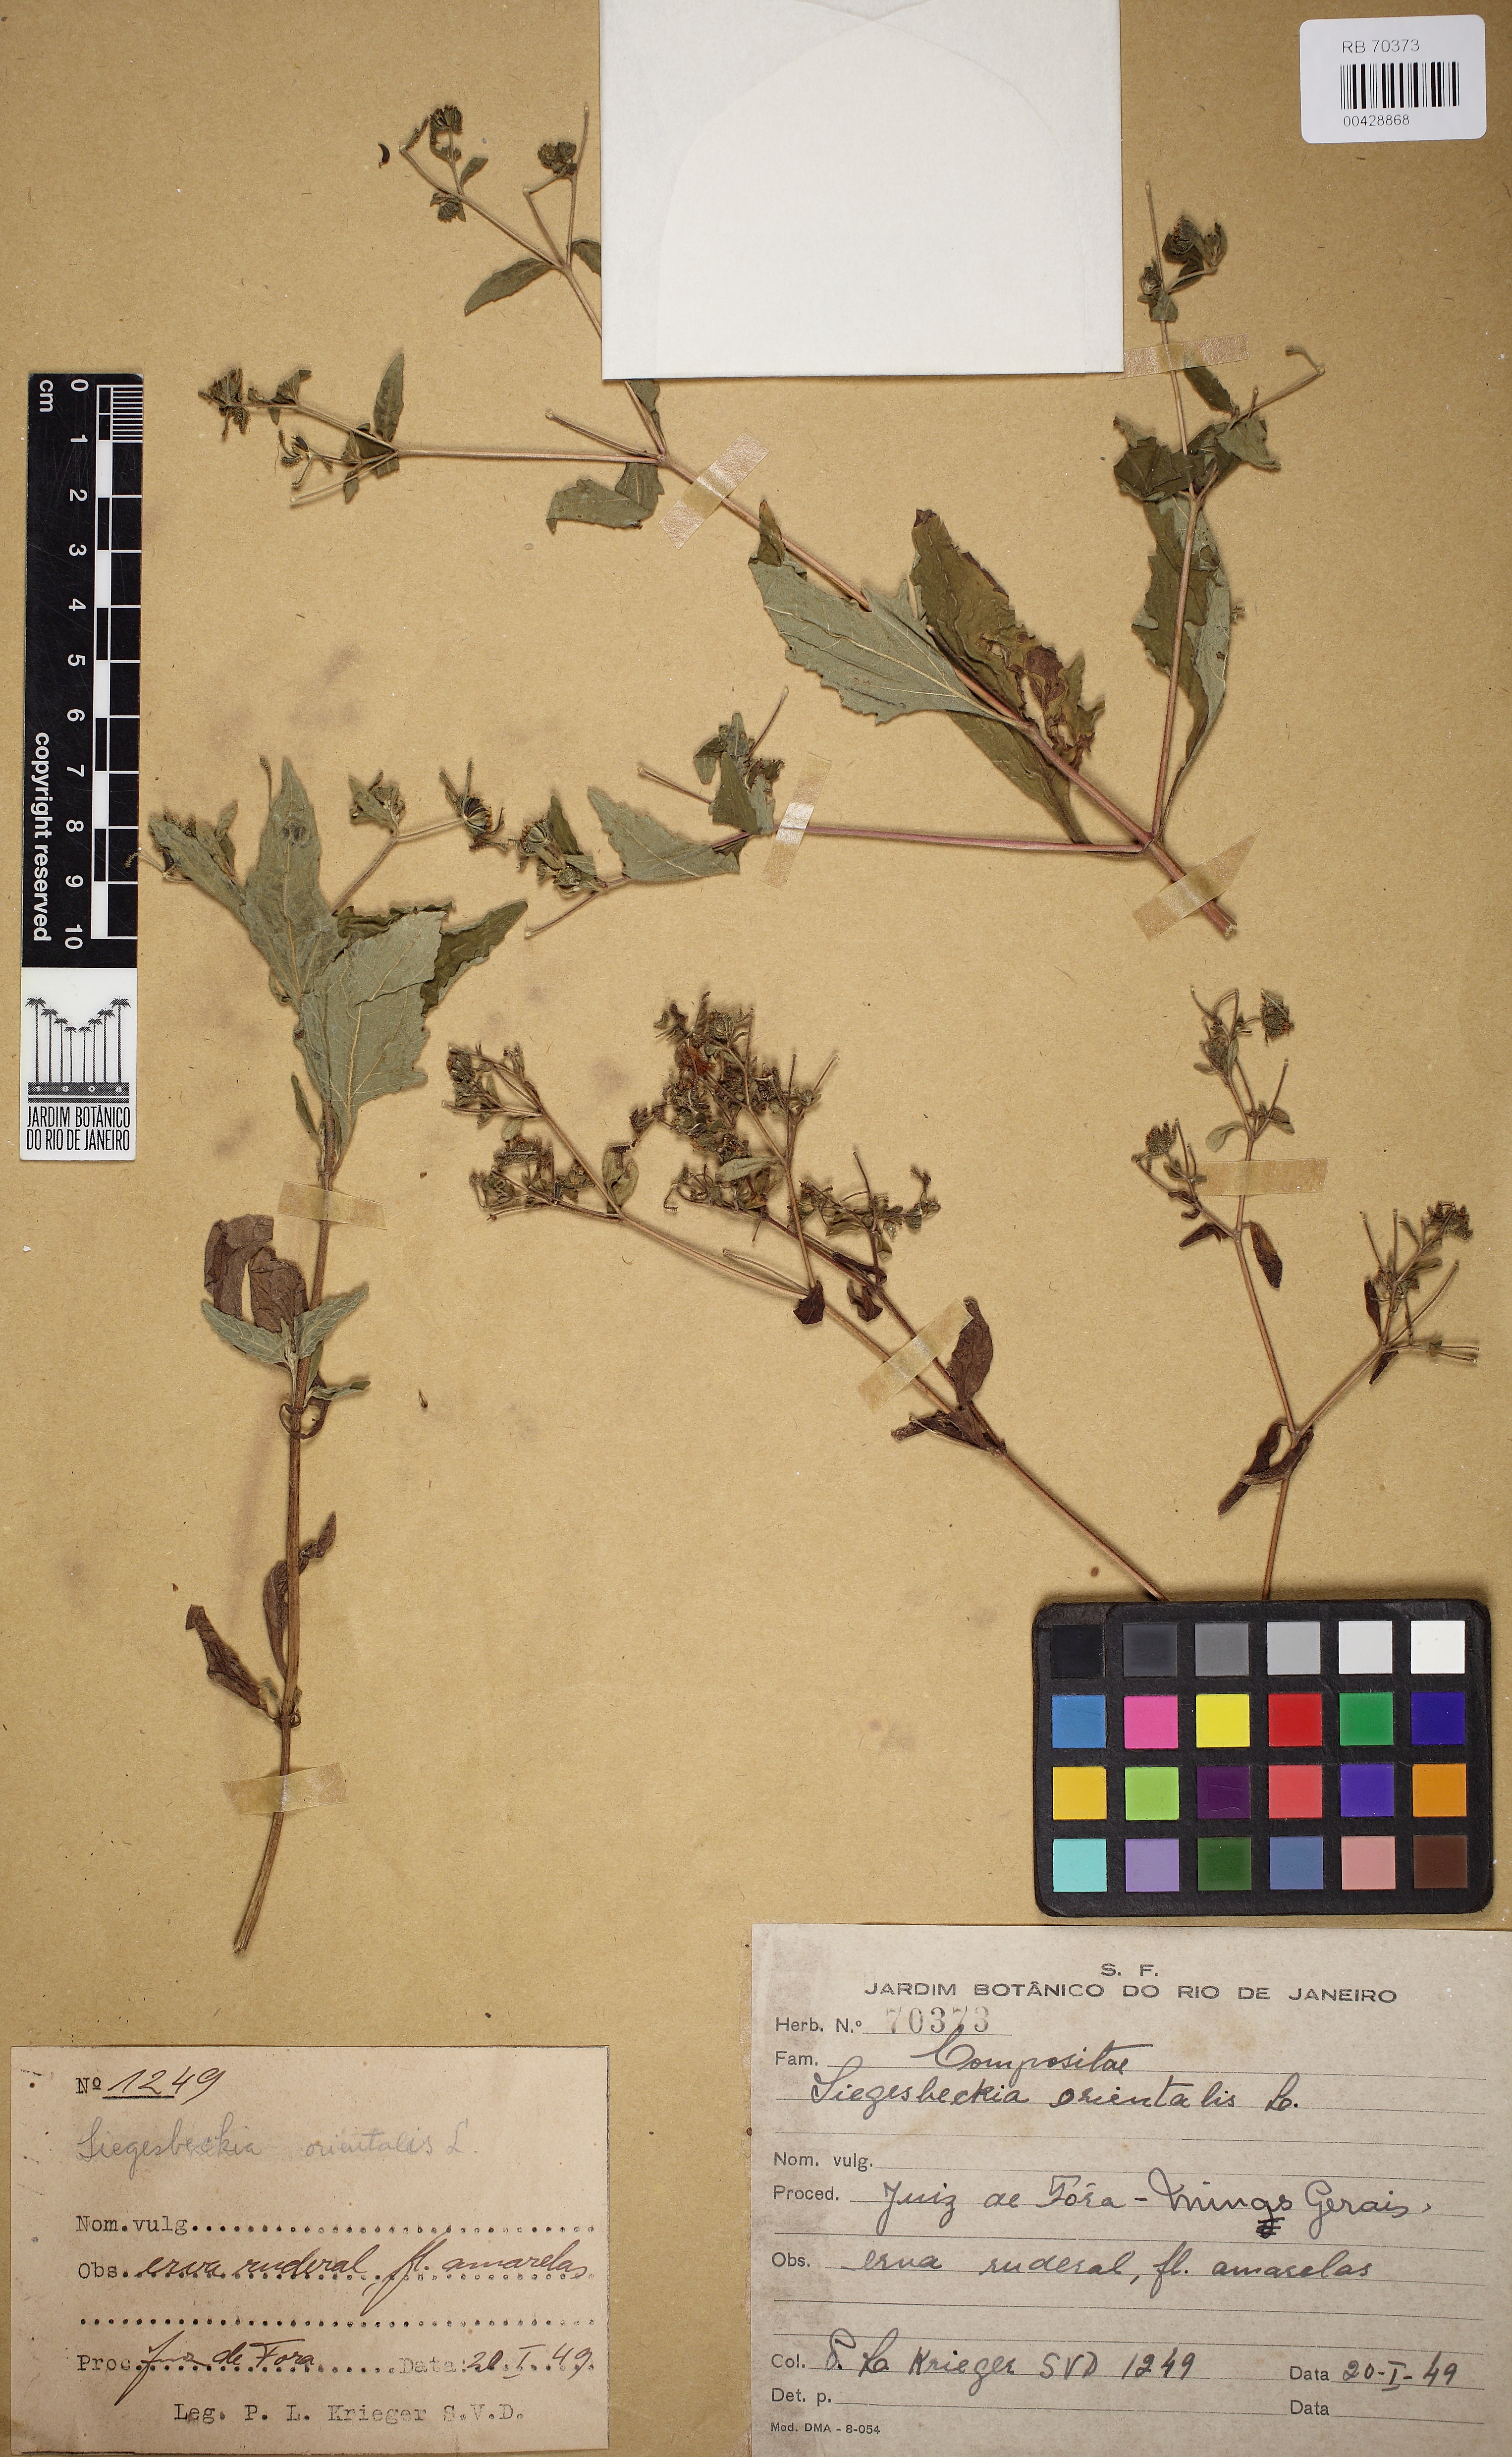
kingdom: Plantae
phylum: Tracheophyta
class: Magnoliopsida
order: Asterales
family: Asteraceae
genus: Sigesbeckia
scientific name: Sigesbeckia orientalis
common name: Eastern st paul's-wort
